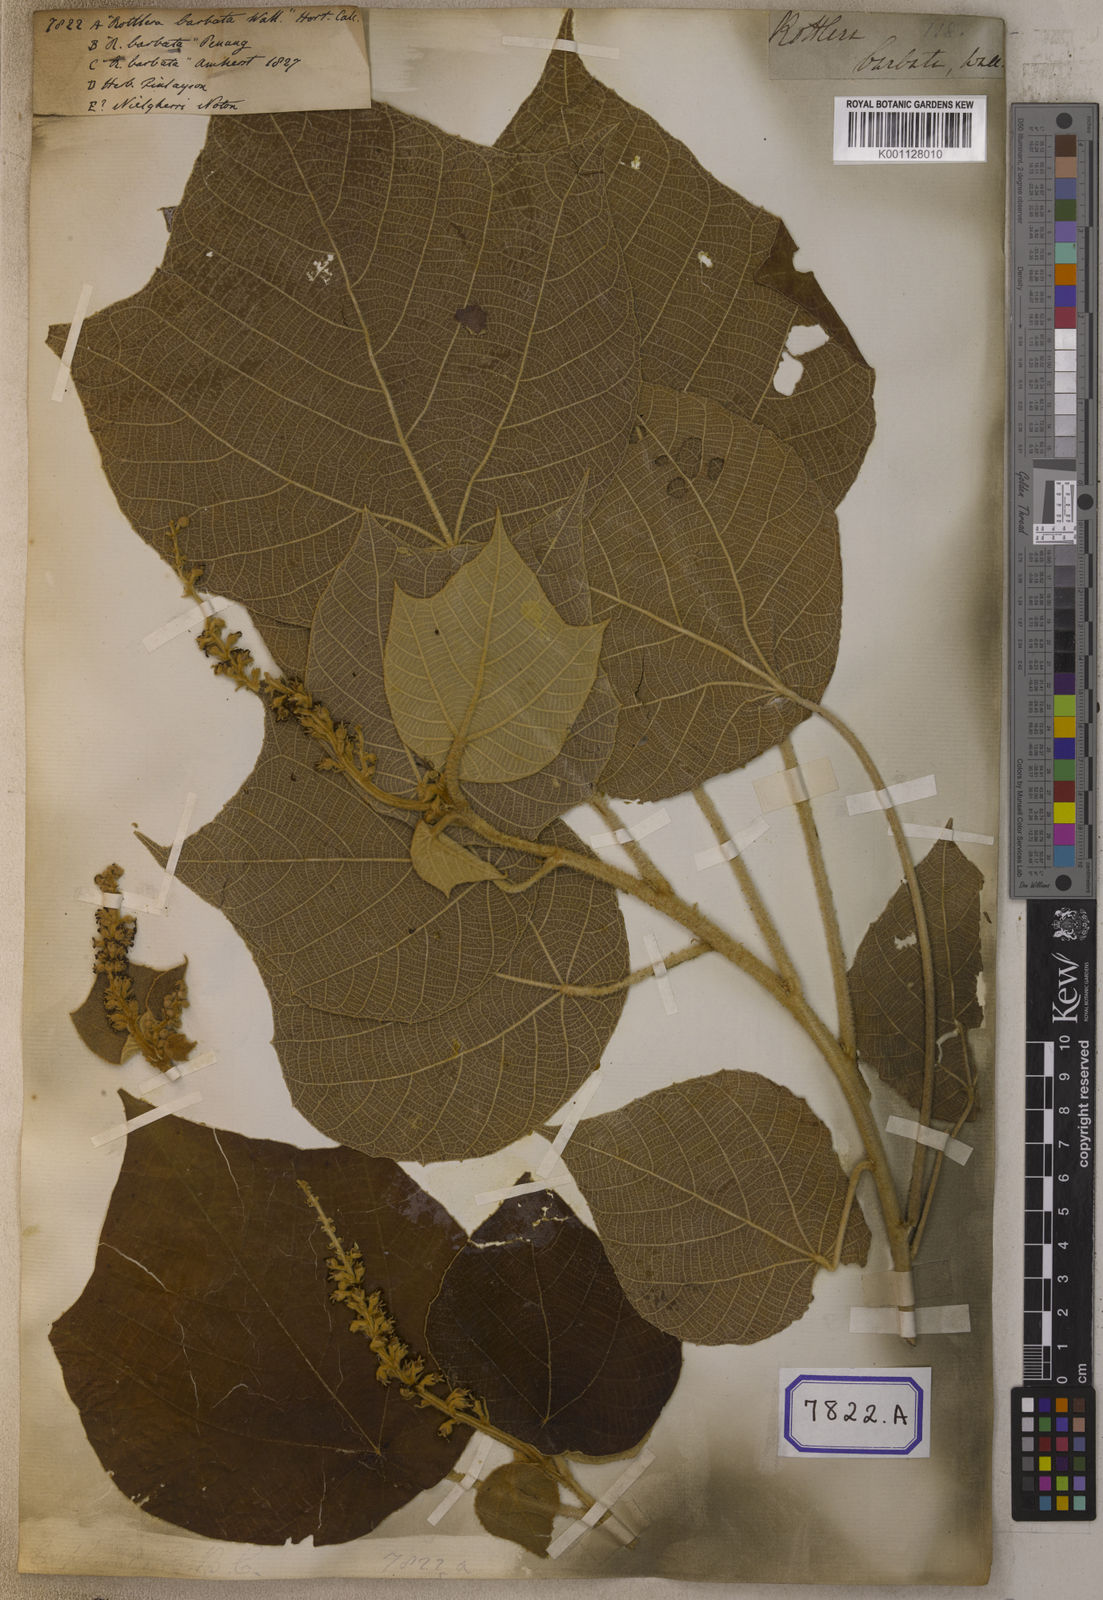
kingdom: Plantae
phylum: Tracheophyta
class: Magnoliopsida
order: Malpighiales
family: Euphorbiaceae
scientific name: Euphorbiaceae
